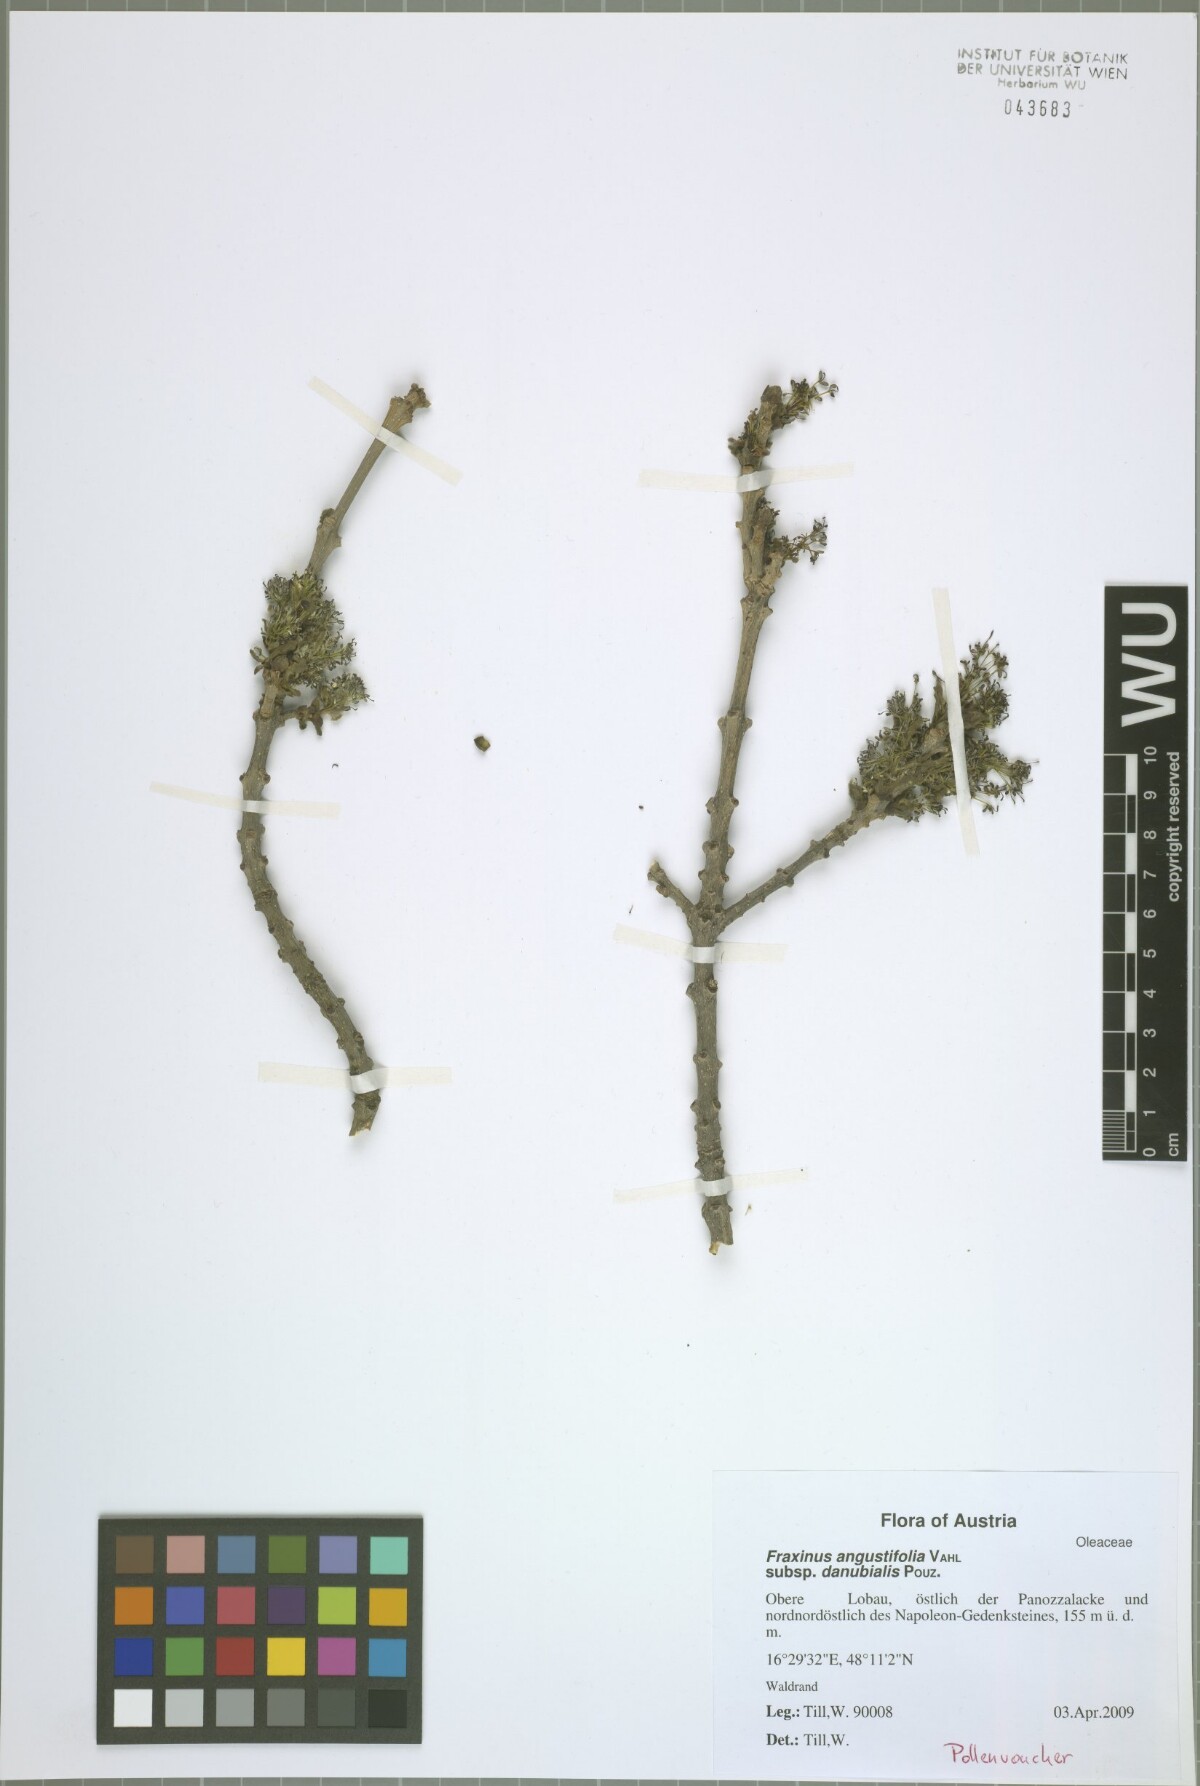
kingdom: Plantae
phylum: Tracheophyta
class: Magnoliopsida
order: Lamiales
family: Oleaceae
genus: Fraxinus
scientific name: Fraxinus angustifolia
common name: Narrow-leafed ash
